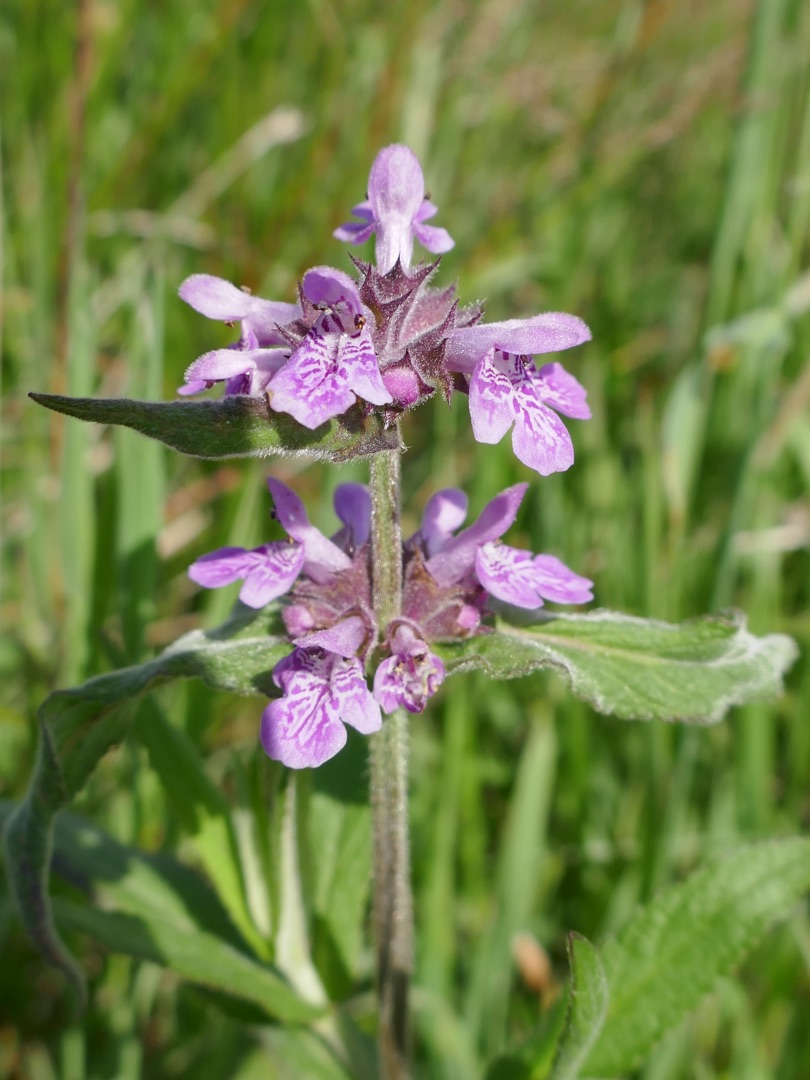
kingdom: Plantae
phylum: Tracheophyta
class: Magnoliopsida
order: Lamiales
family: Lamiaceae
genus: Stachys
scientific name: Stachys palustris
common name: Kær-galtetand
